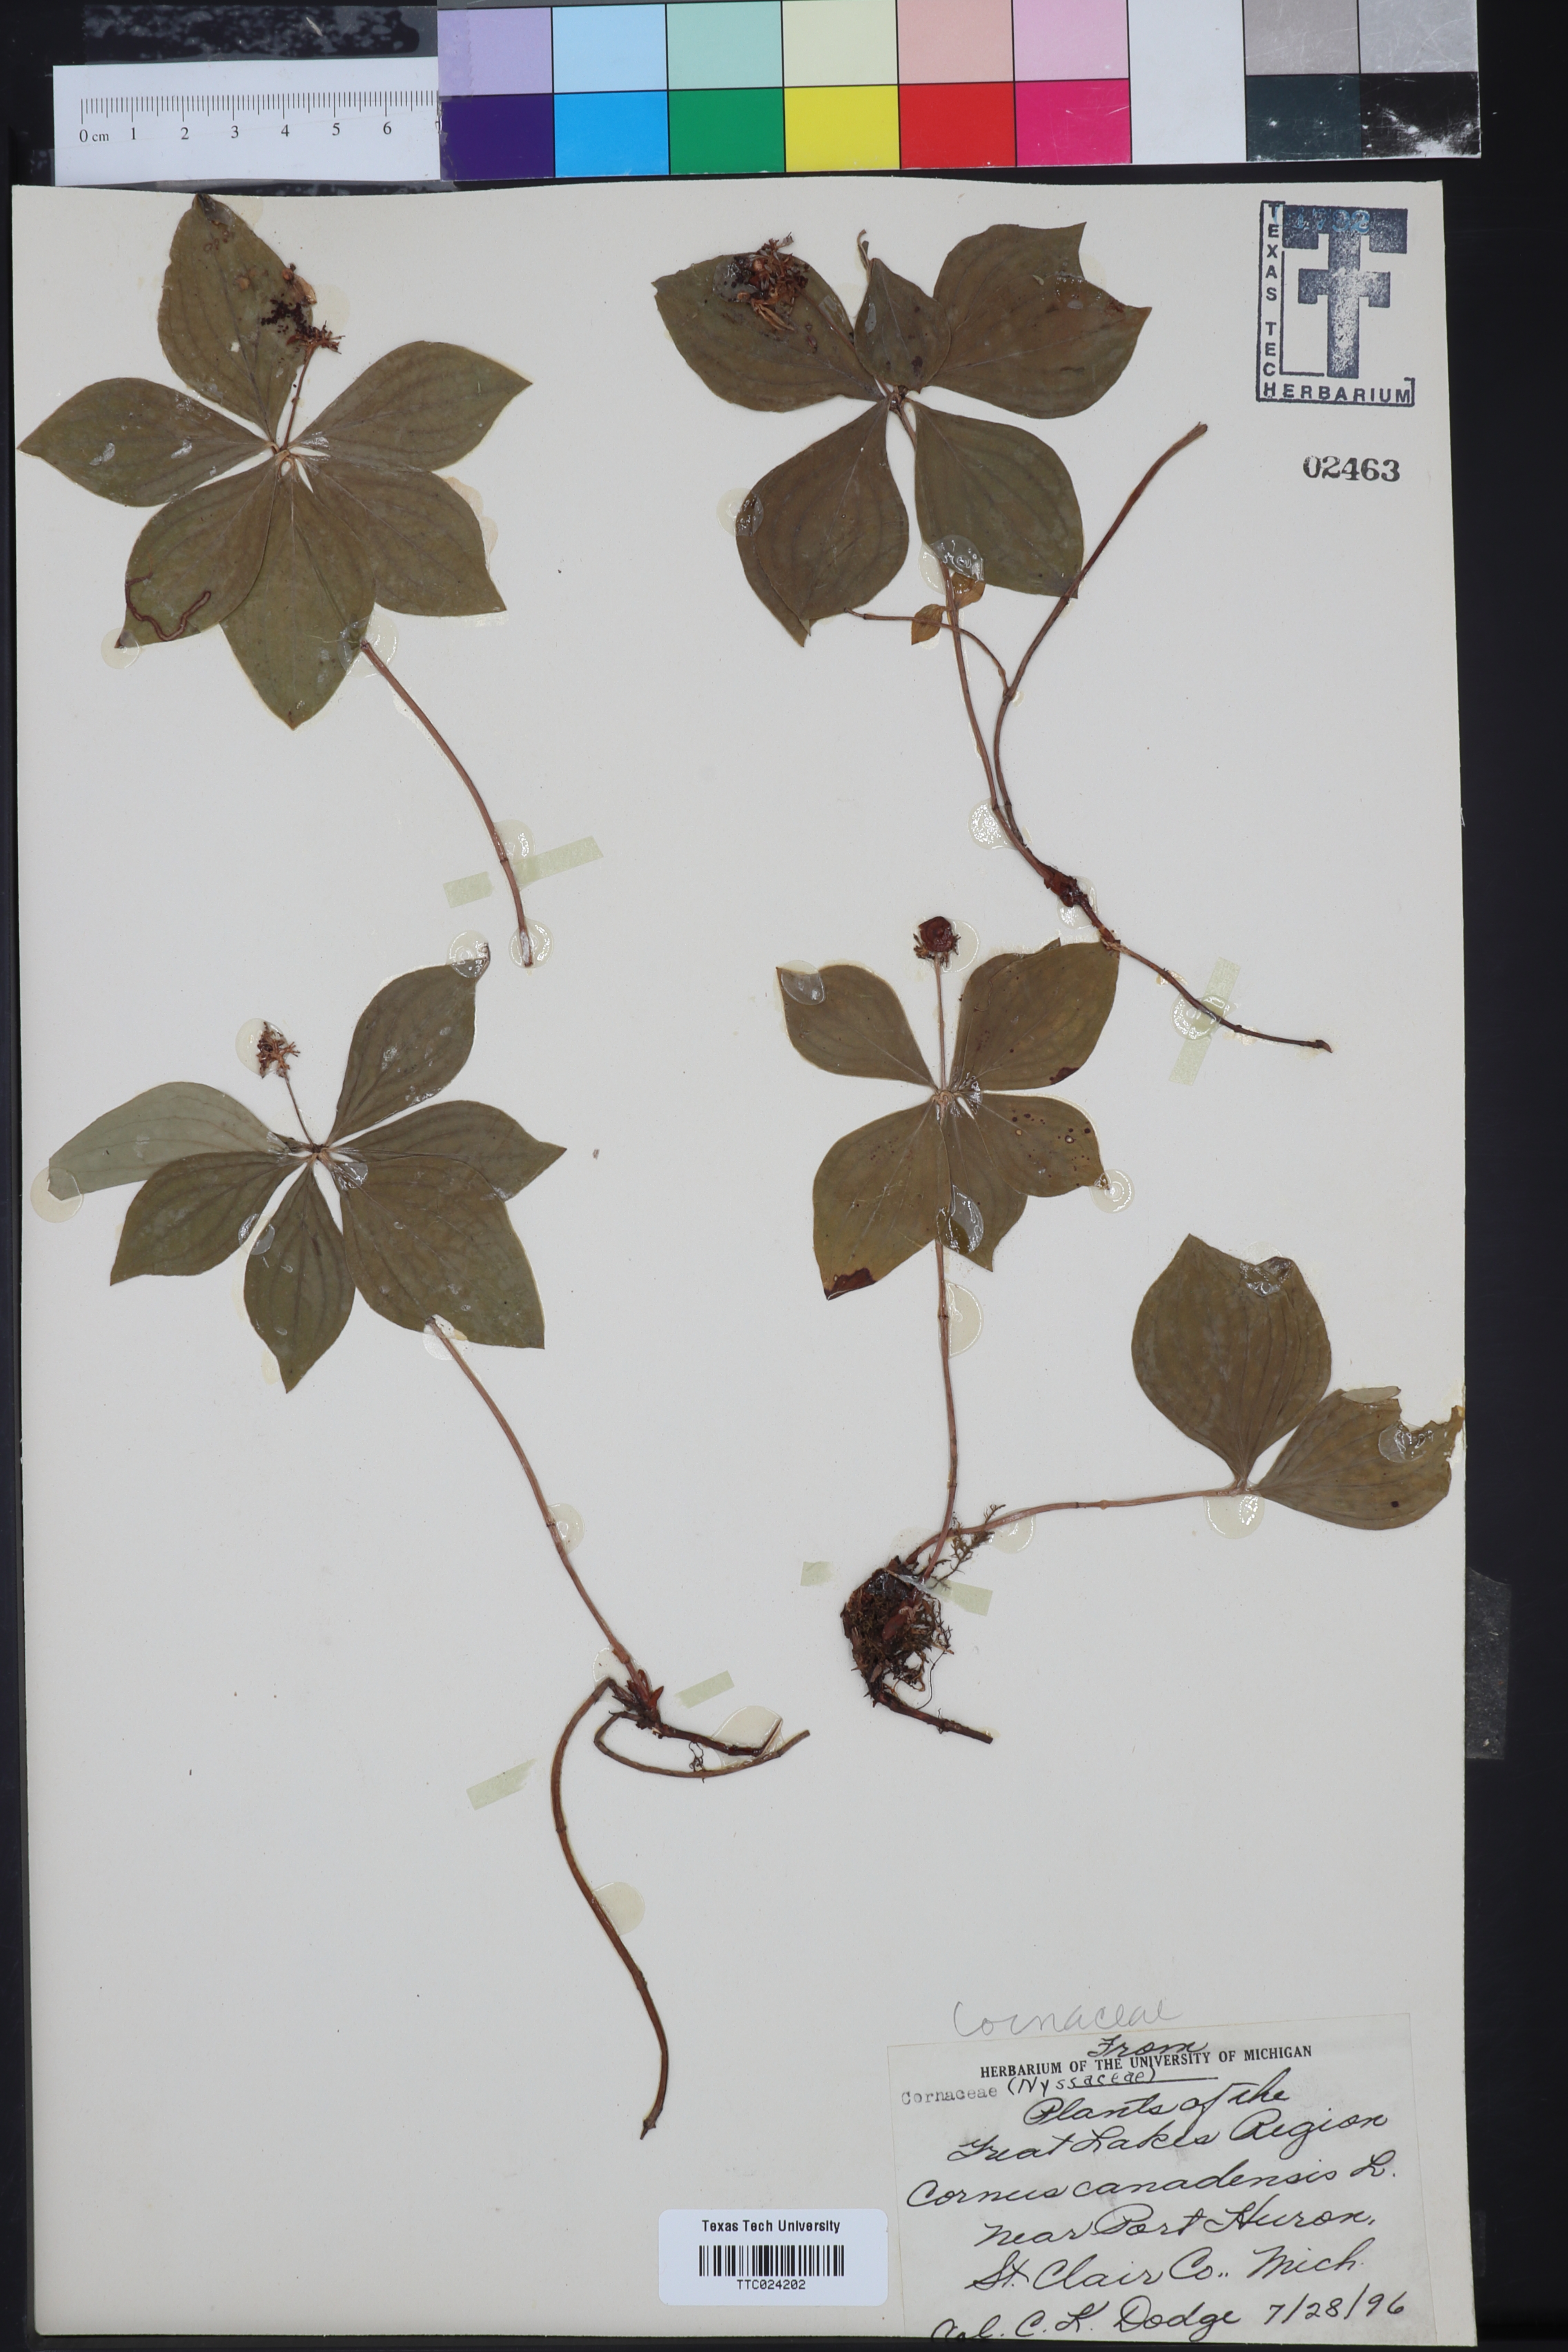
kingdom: Plantae
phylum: Tracheophyta
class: Magnoliopsida
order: Cornales
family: Cornaceae
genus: Cornus
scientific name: Cornus canadensis
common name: Creeping dogwood
